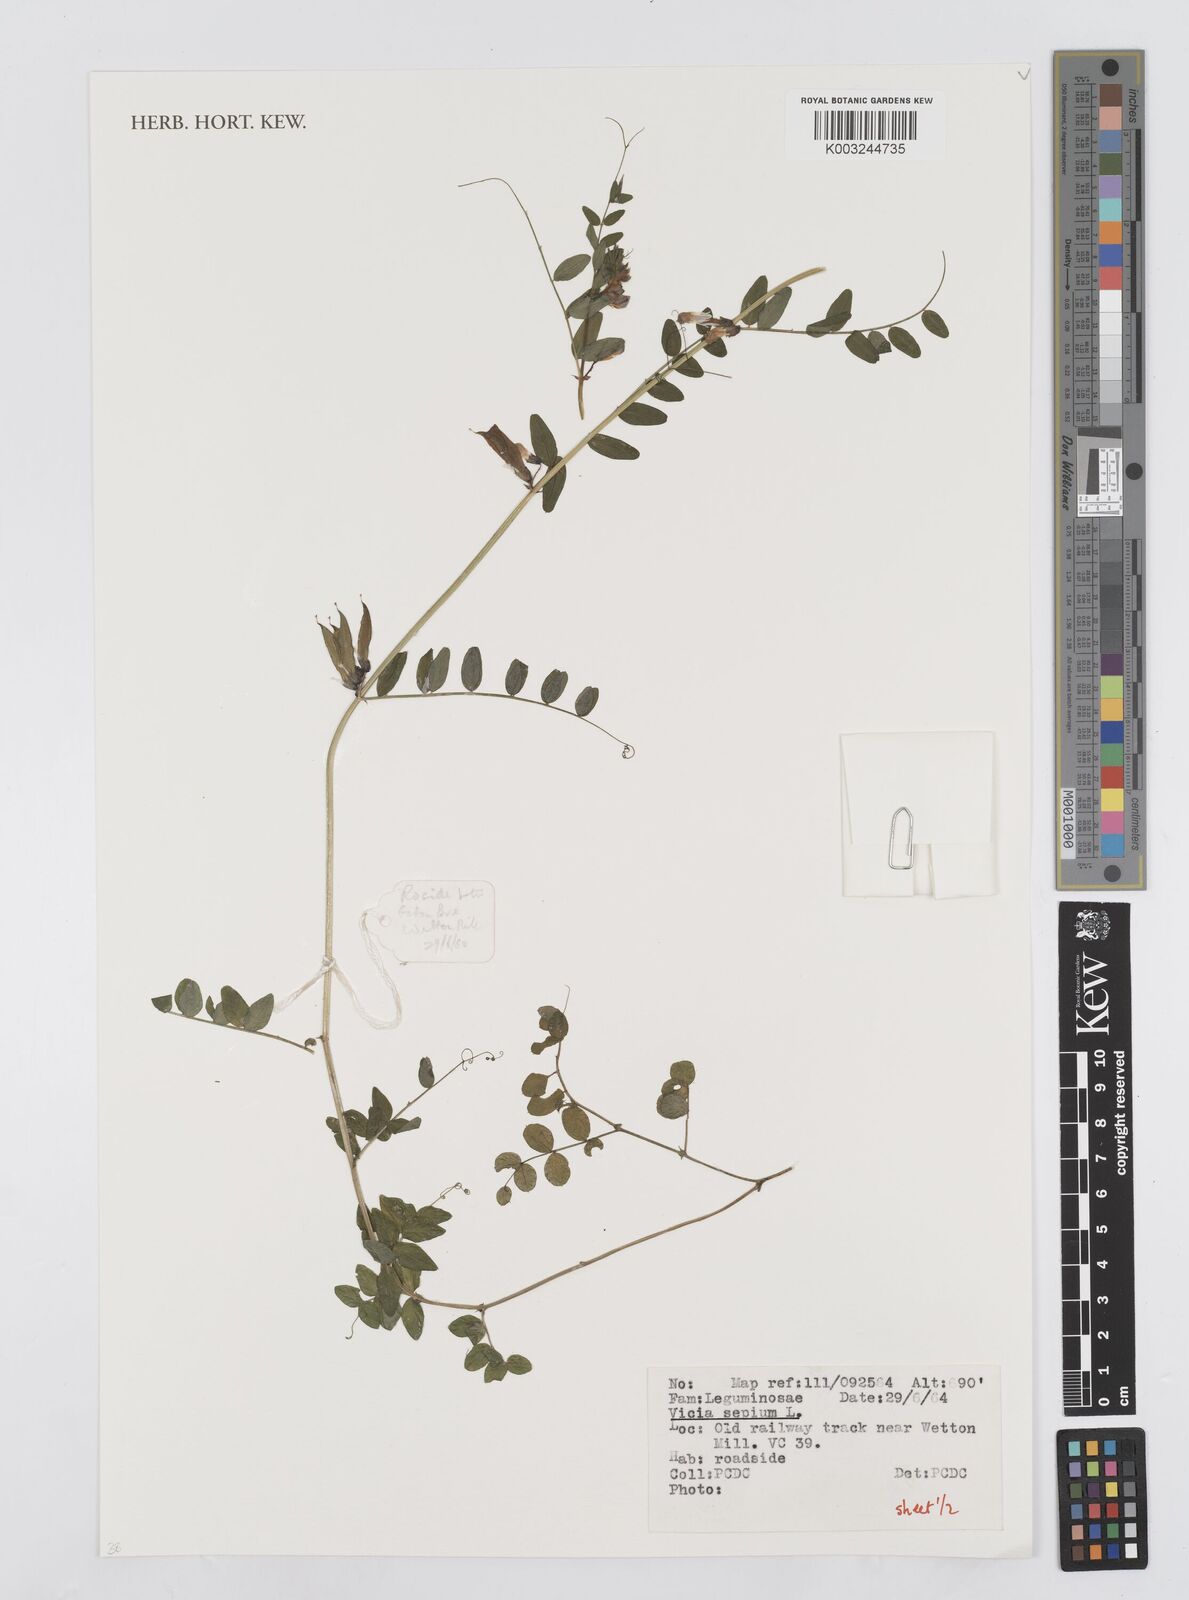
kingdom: Plantae
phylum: Tracheophyta
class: Magnoliopsida
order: Fabales
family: Fabaceae
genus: Vicia
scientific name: Vicia sepium
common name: Bush vetch
